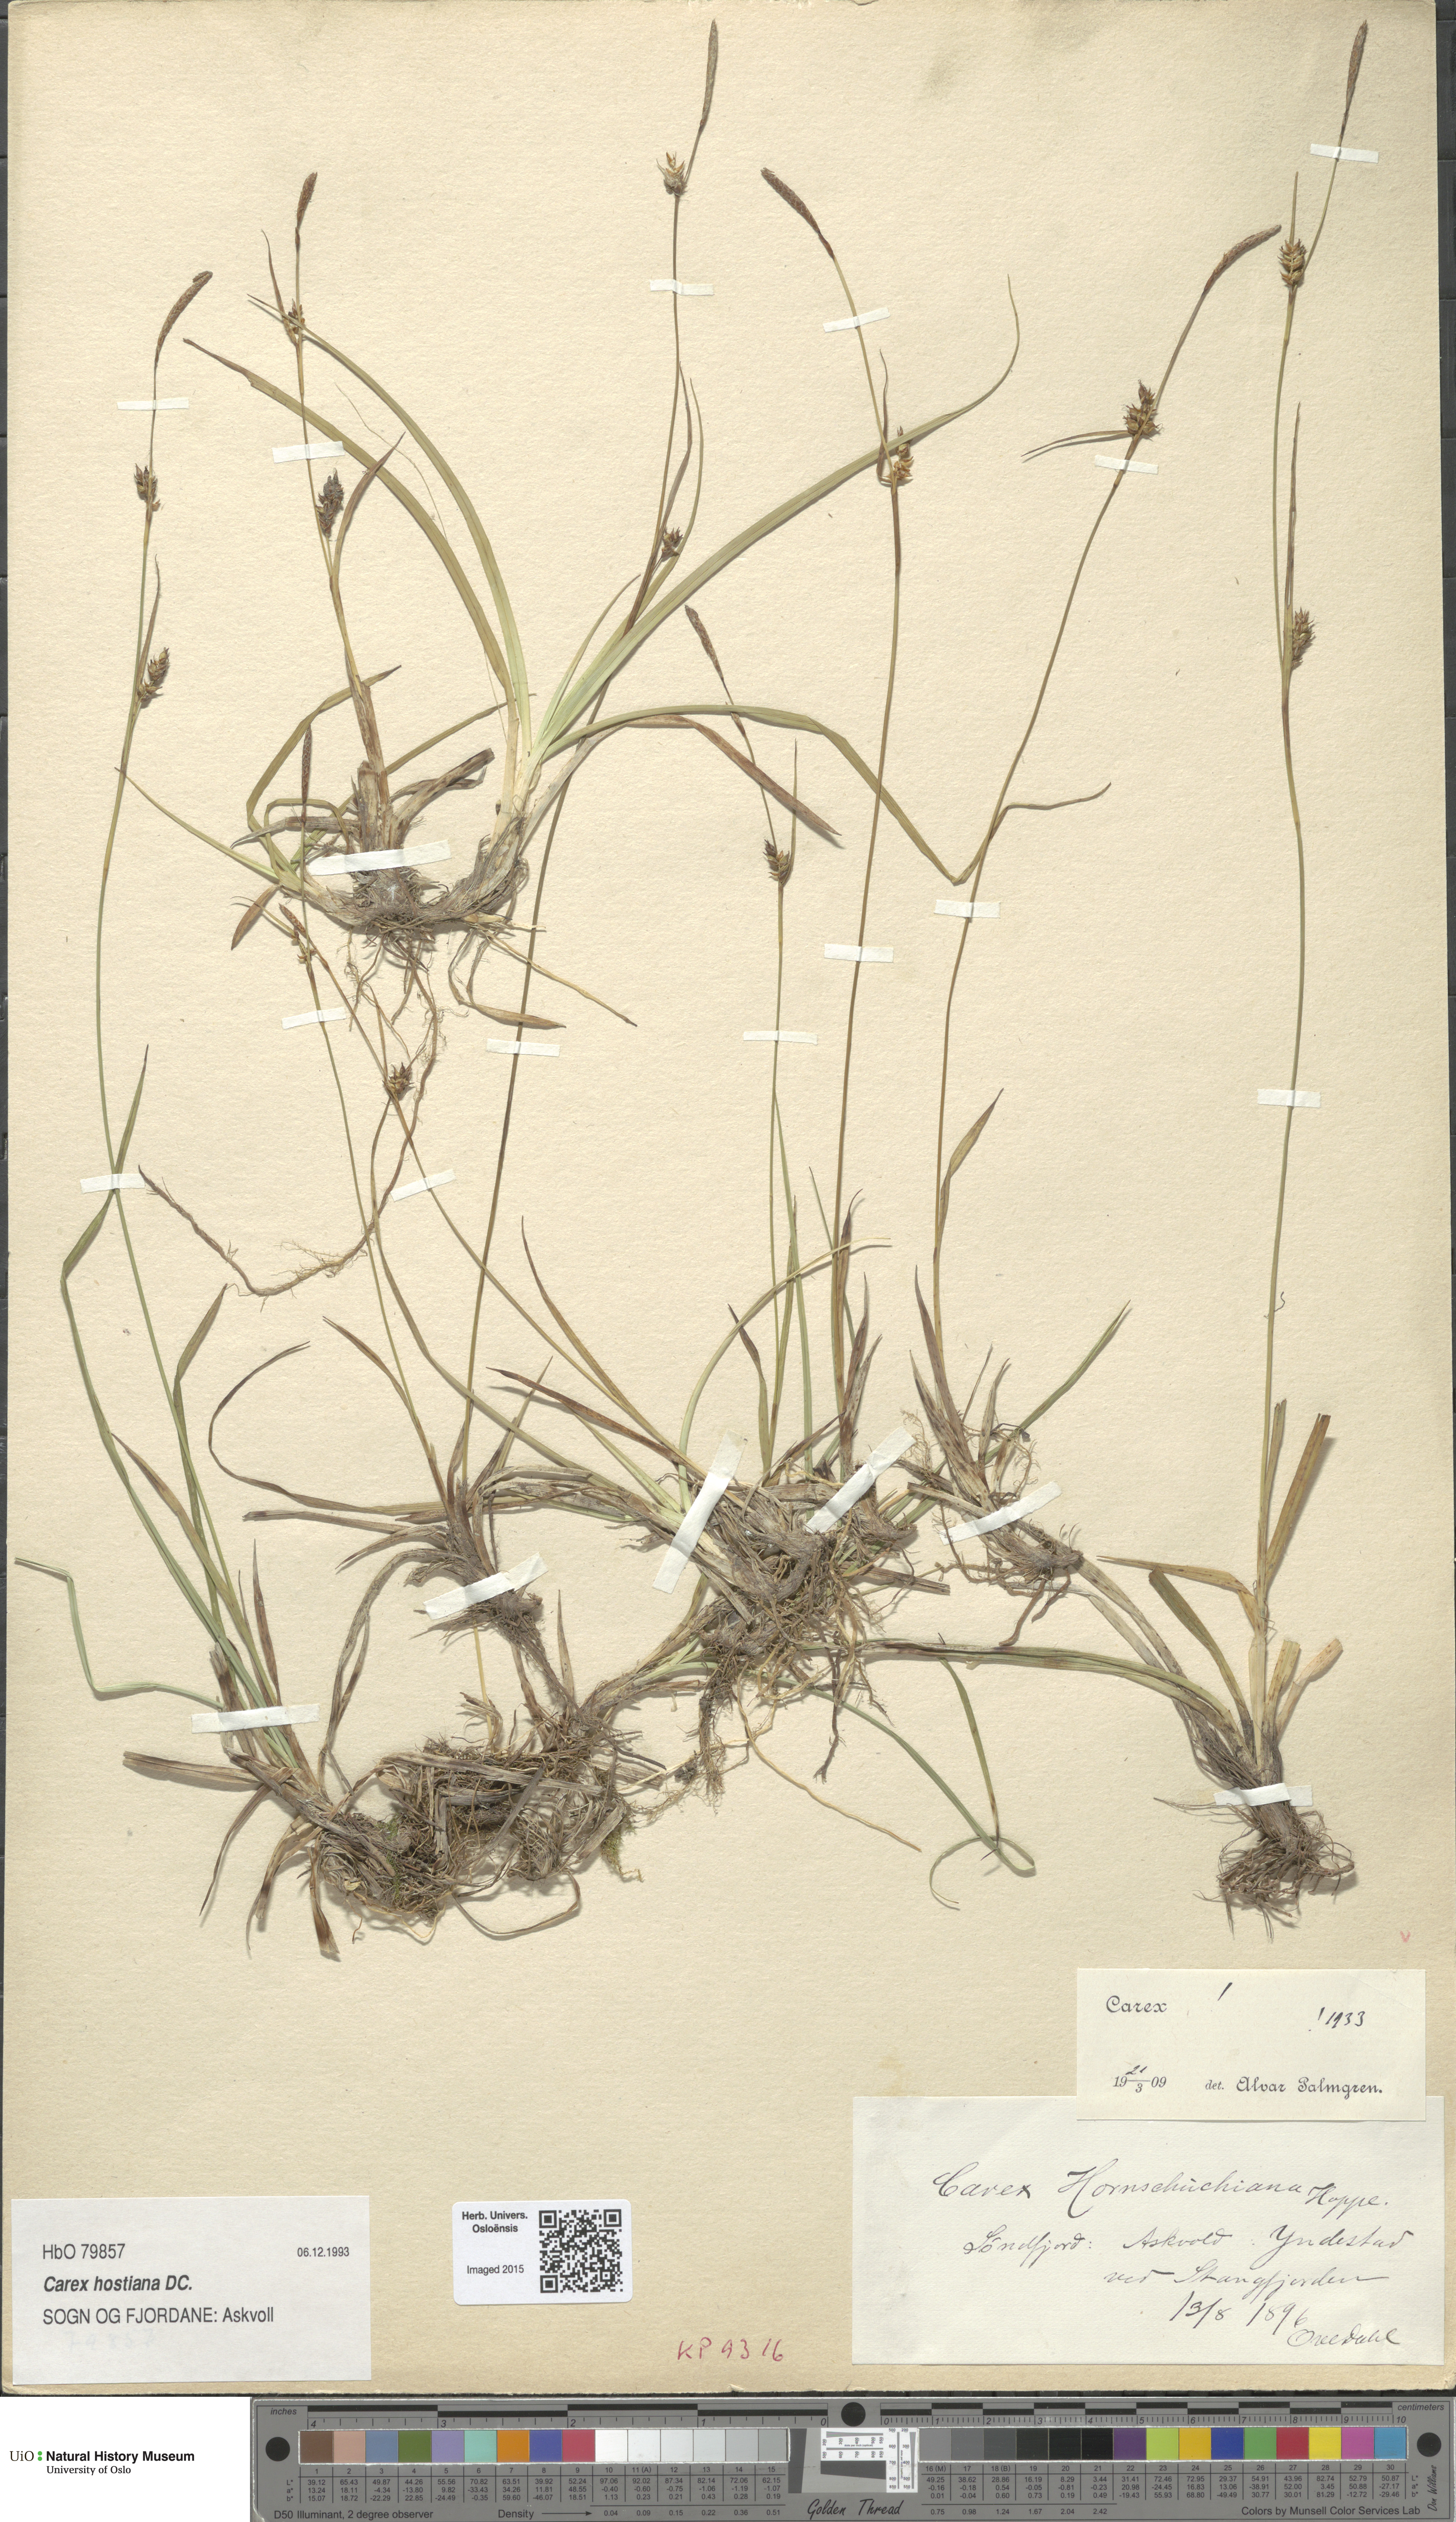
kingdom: Plantae
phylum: Tracheophyta
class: Liliopsida
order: Poales
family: Cyperaceae
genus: Carex
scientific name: Carex hostiana
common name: Tawny sedge
